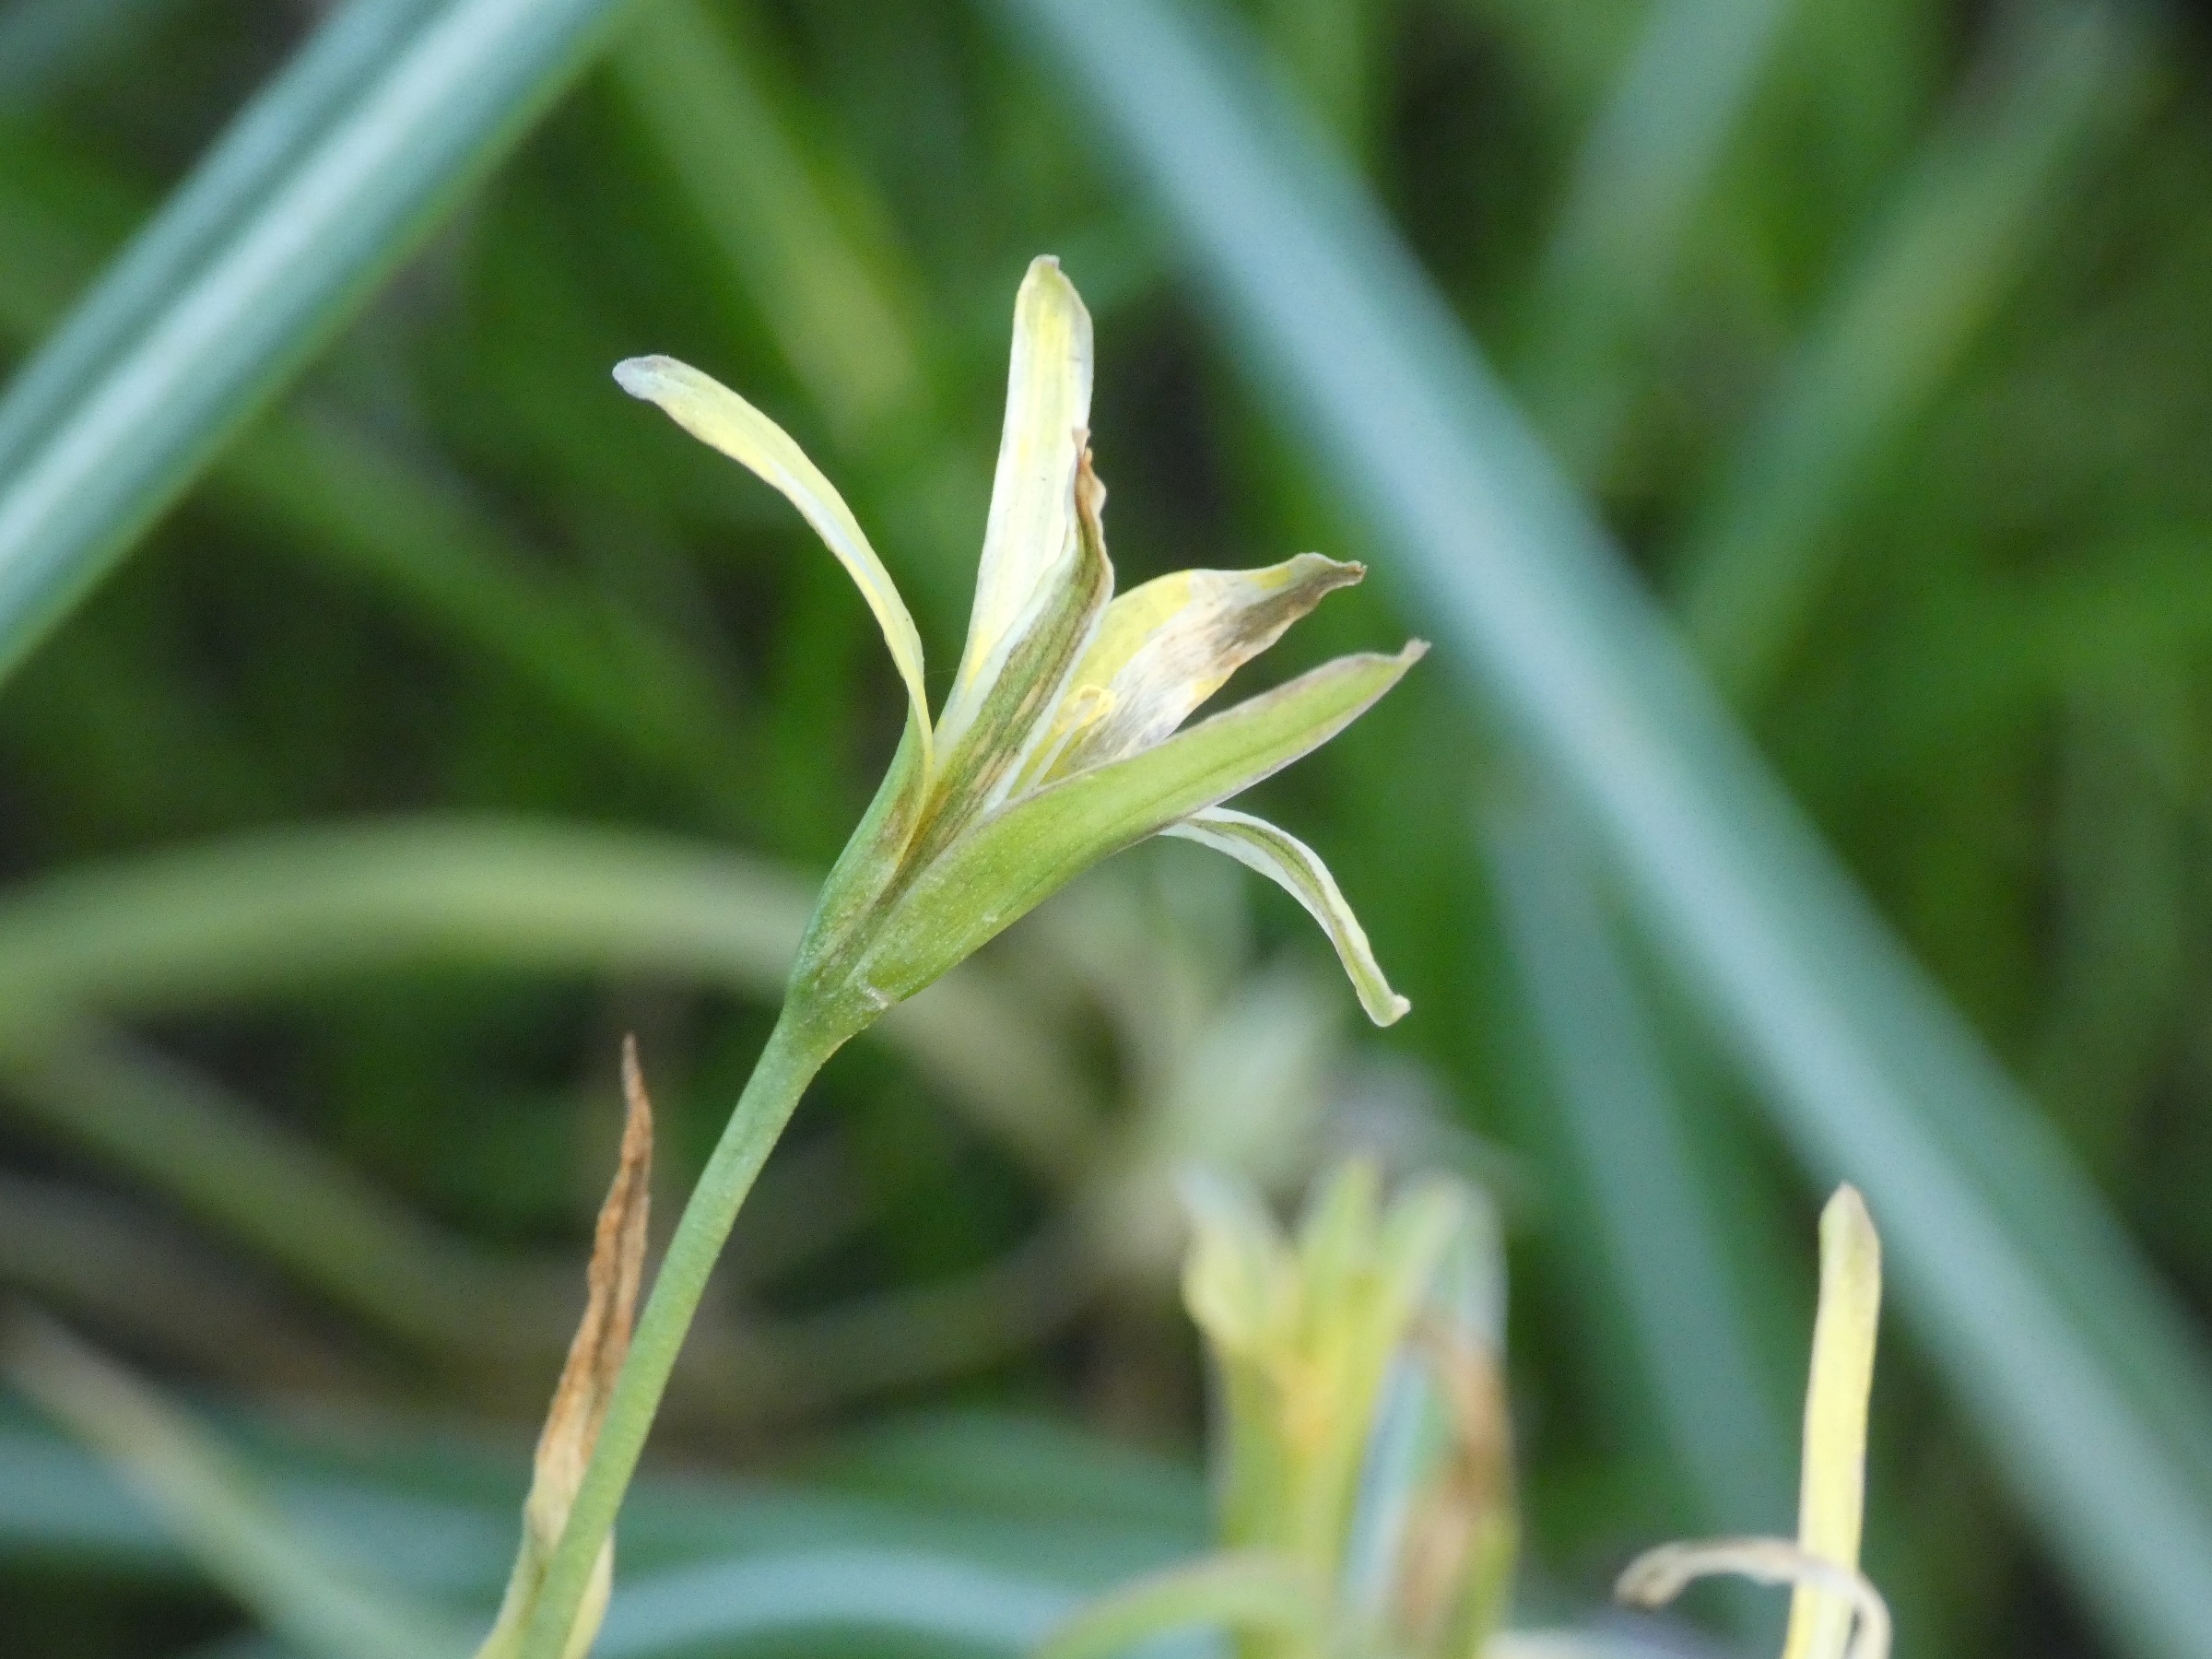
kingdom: Plantae
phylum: Tracheophyta
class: Liliopsida
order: Liliales
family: Liliaceae
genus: Gagea
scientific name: Gagea lutea
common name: Almindelig guldstjerne
